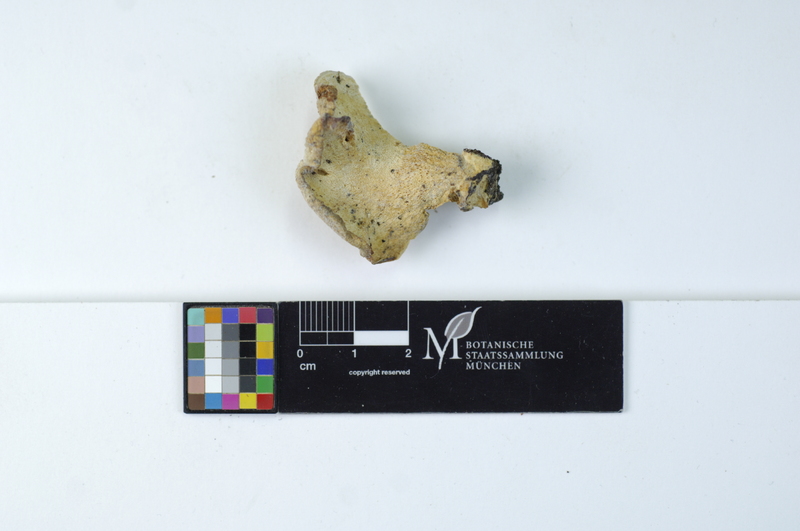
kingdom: Fungi
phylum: Basidiomycota
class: Agaricomycetes
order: Polyporales
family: Incrustoporiaceae
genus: Tyromyces
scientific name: Tyromyces chioneus
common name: White cheese polypore
